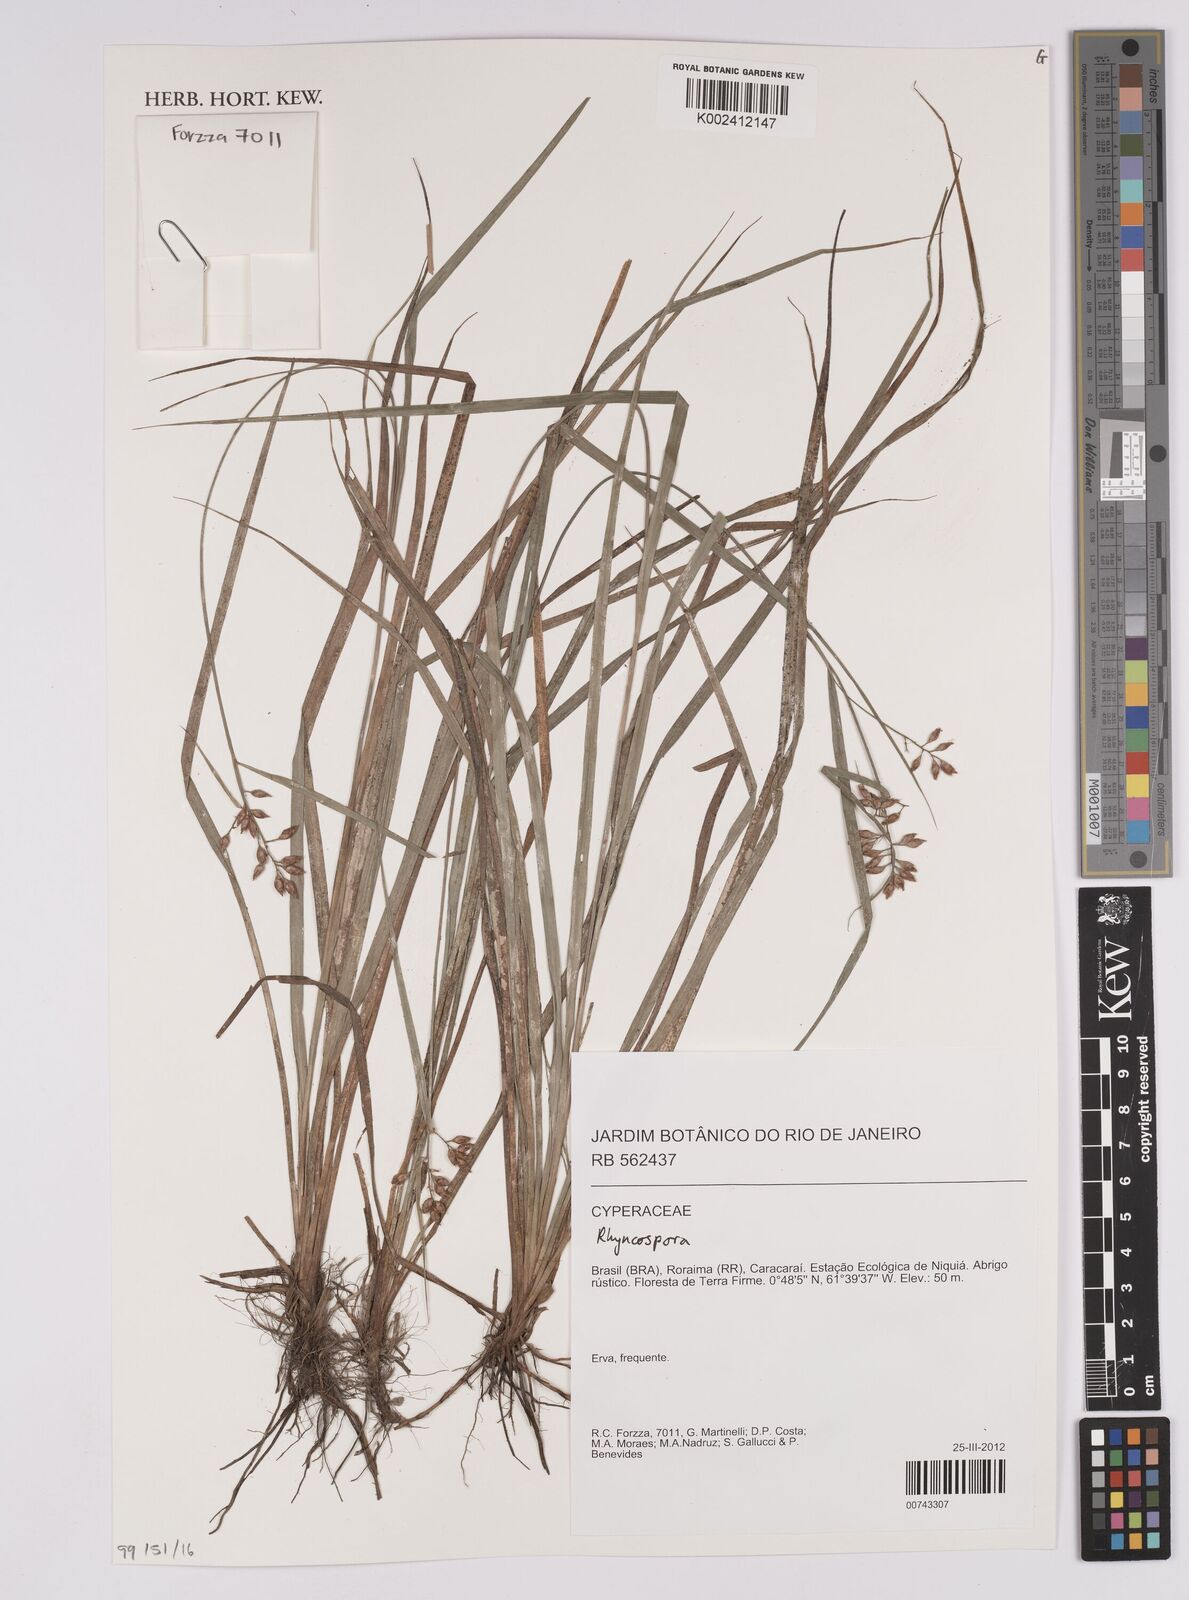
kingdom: Plantae
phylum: Tracheophyta
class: Liliopsida
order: Poales
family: Cyperaceae
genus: Rhynchospora
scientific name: Rhynchospora
